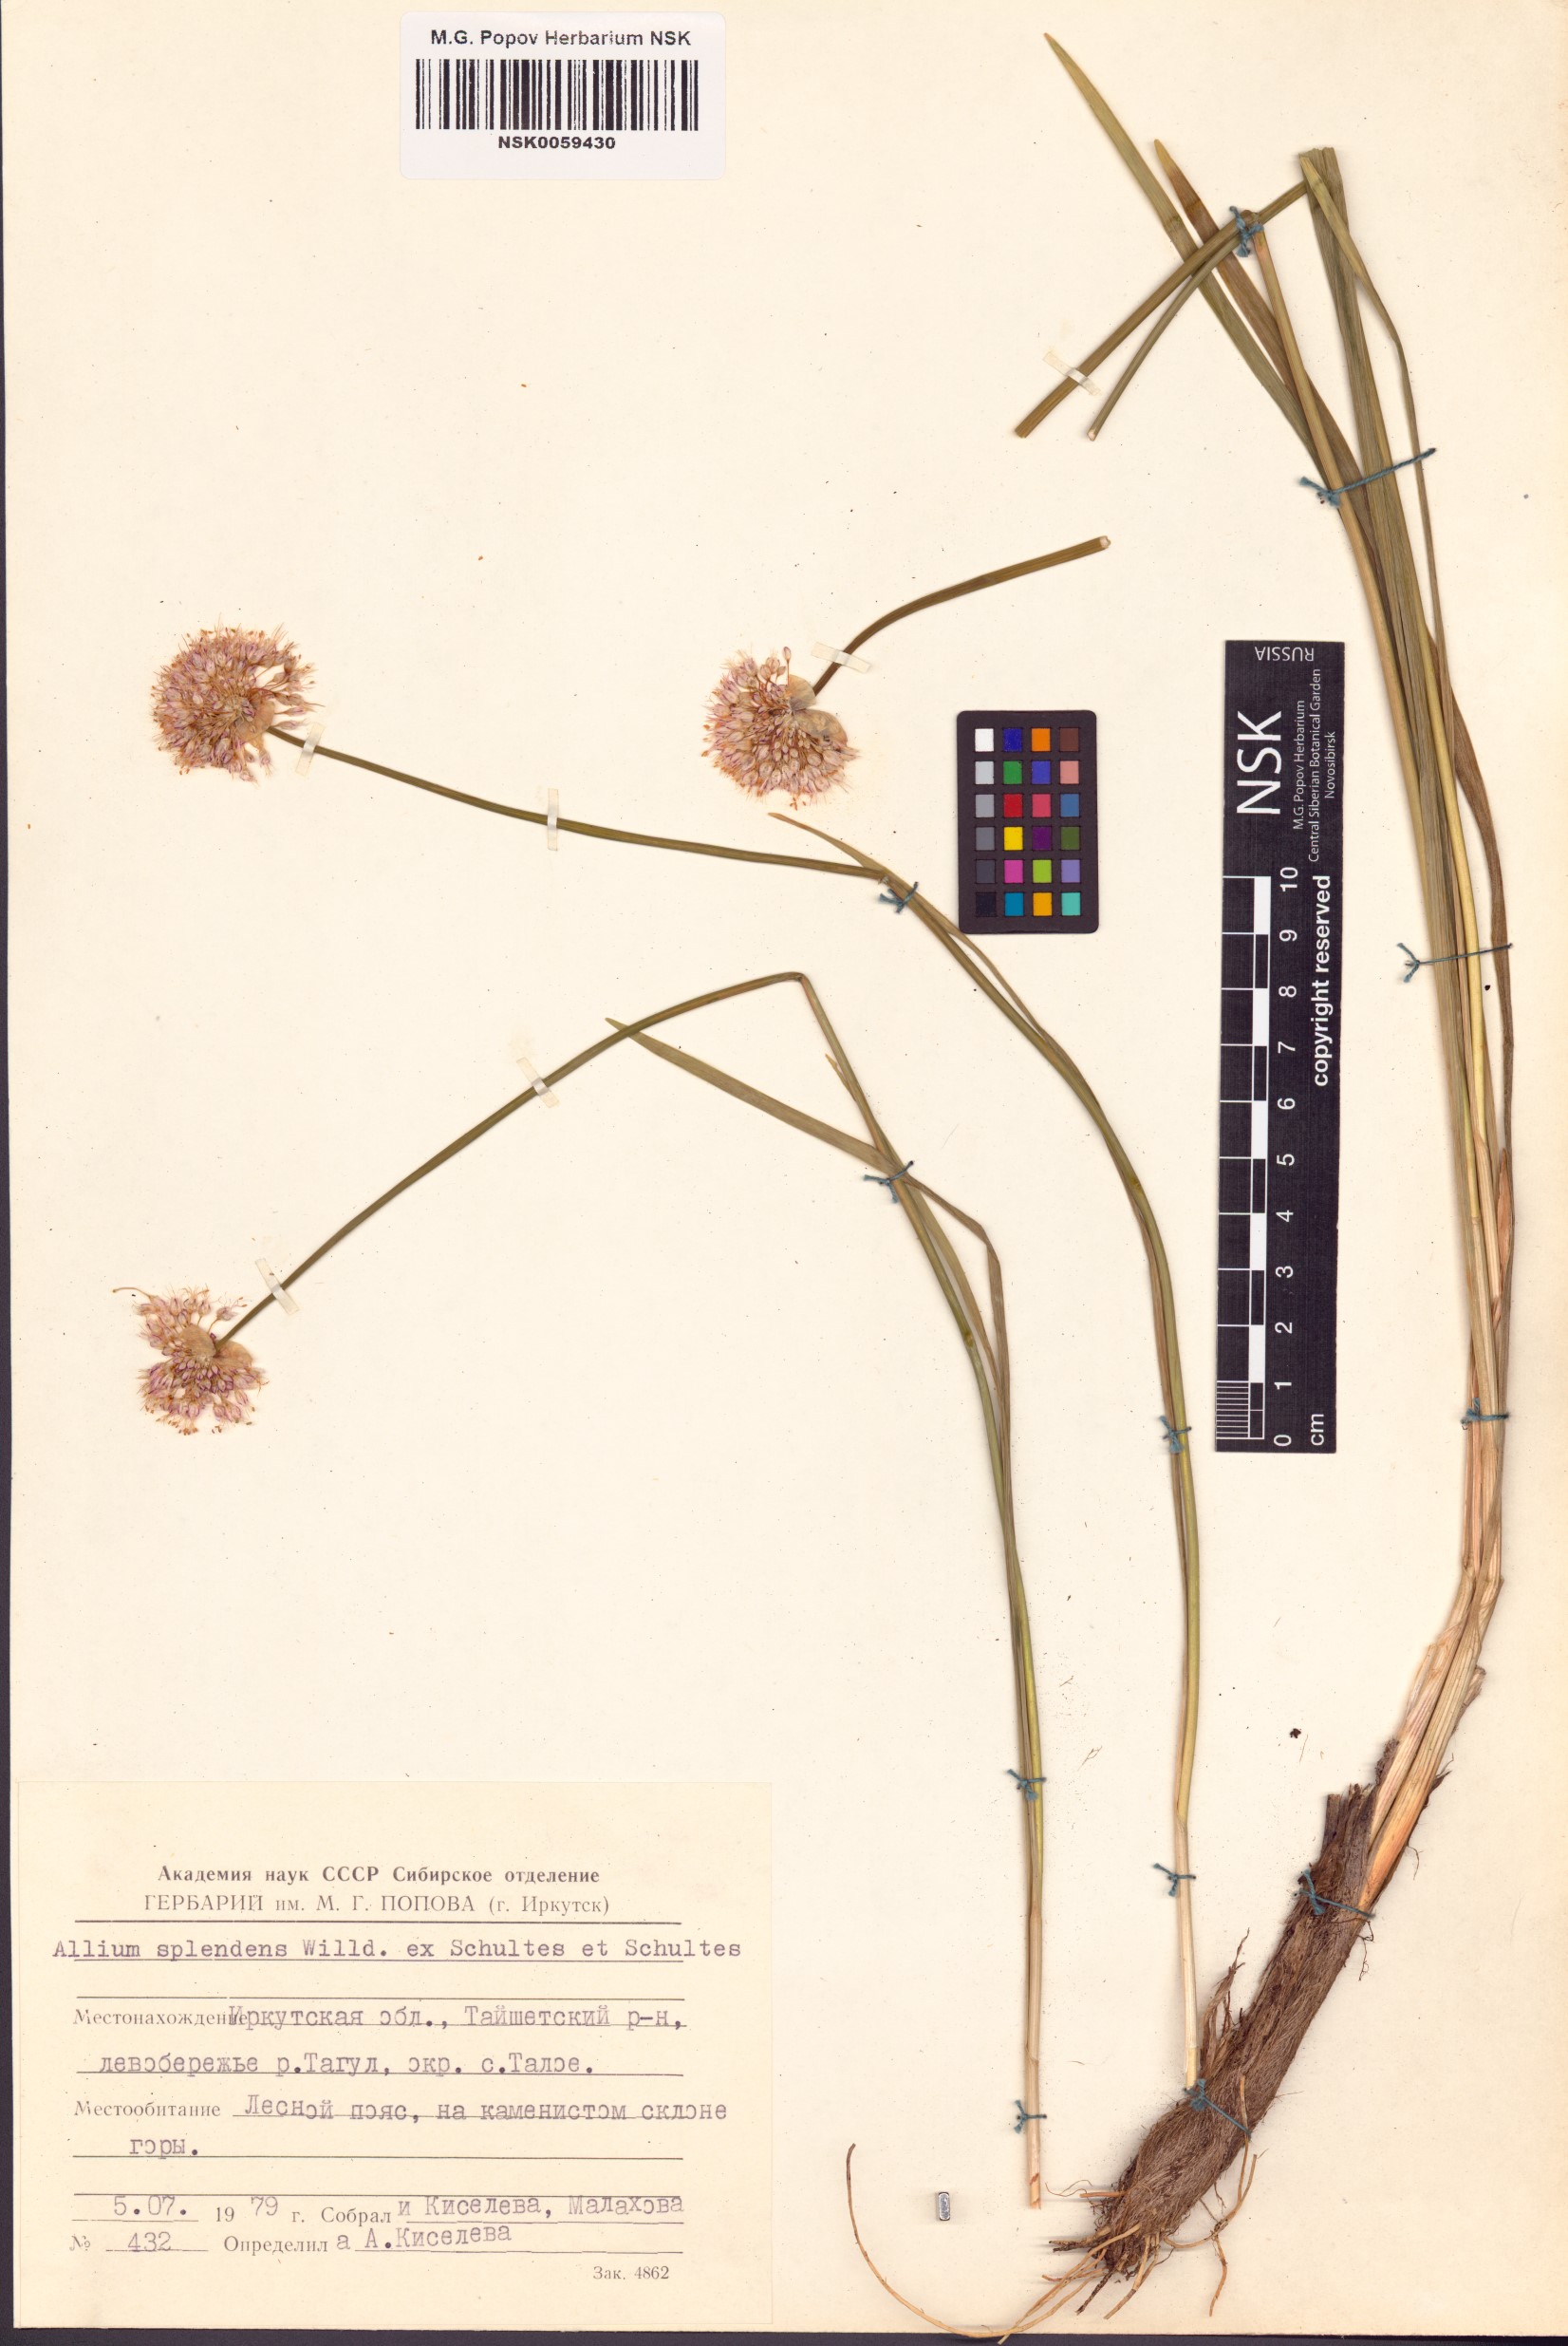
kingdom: Plantae
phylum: Tracheophyta
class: Liliopsida
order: Asparagales
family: Amaryllidaceae
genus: Allium
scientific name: Allium splendens
